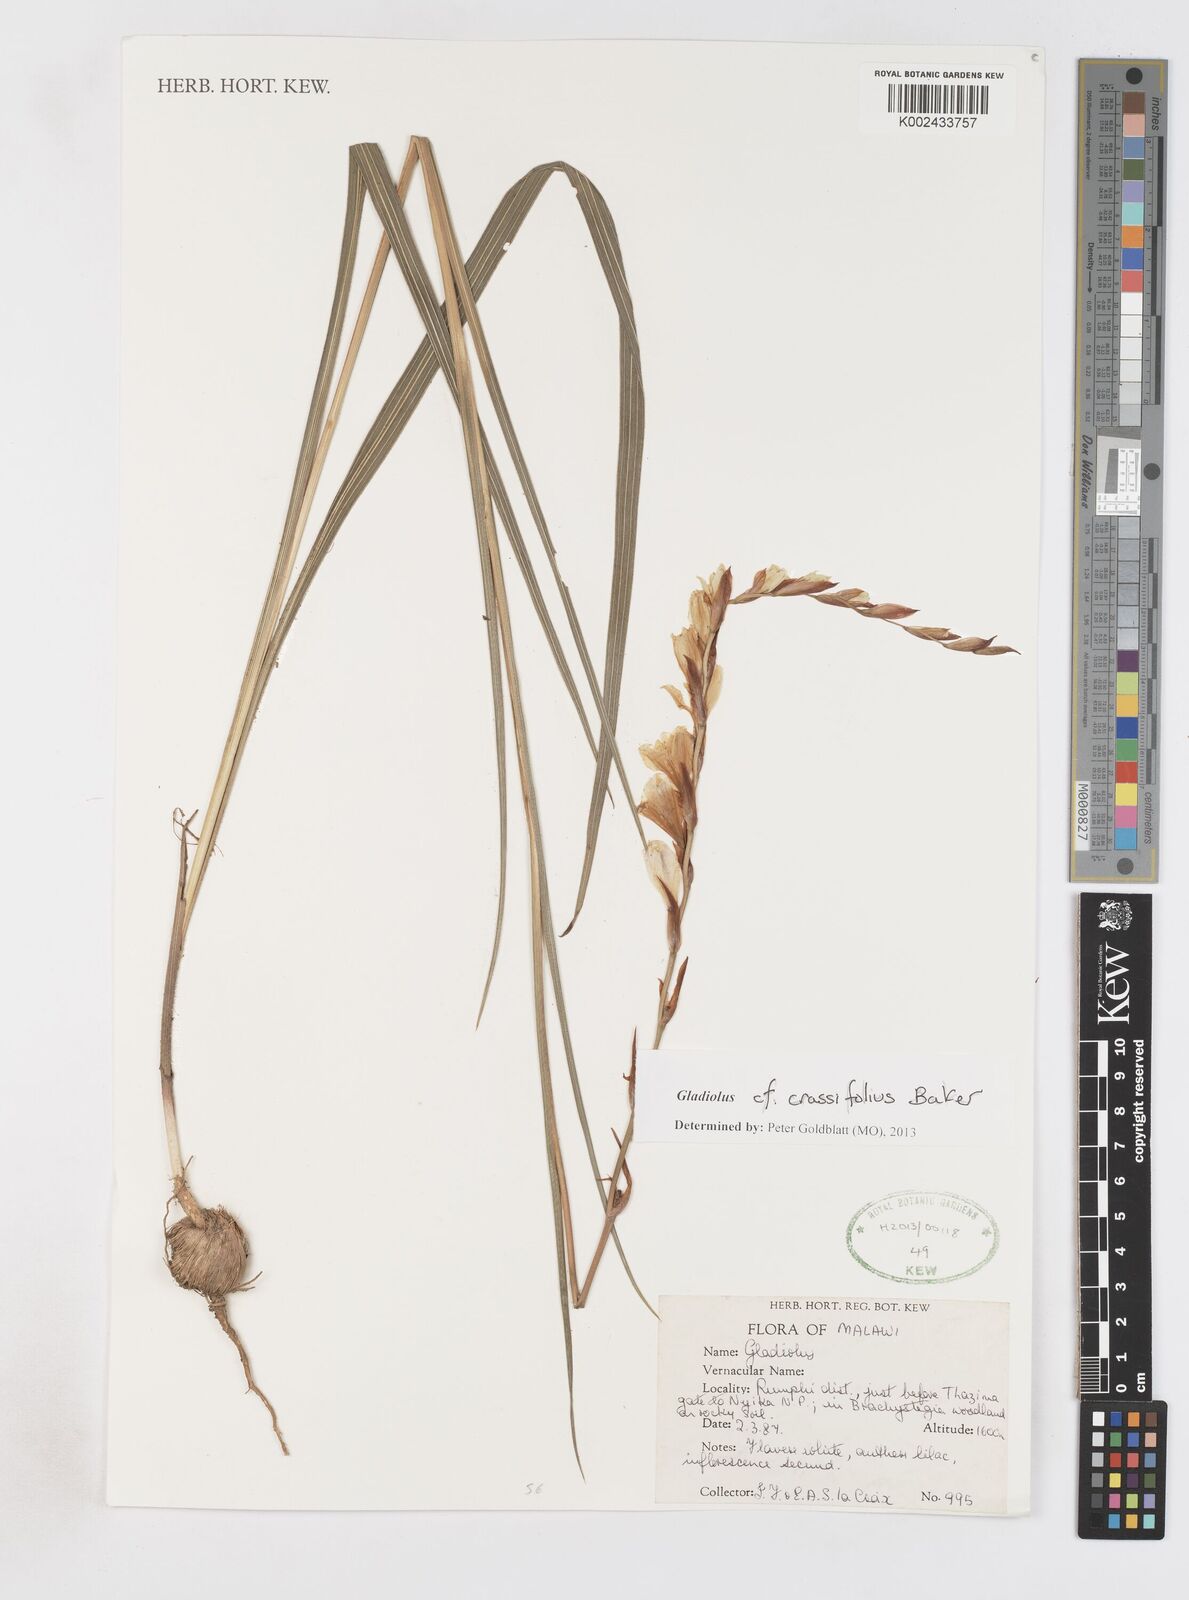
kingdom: Plantae
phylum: Tracheophyta
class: Liliopsida
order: Asparagales
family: Iridaceae
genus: Gladiolus
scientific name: Gladiolus crassifolius
